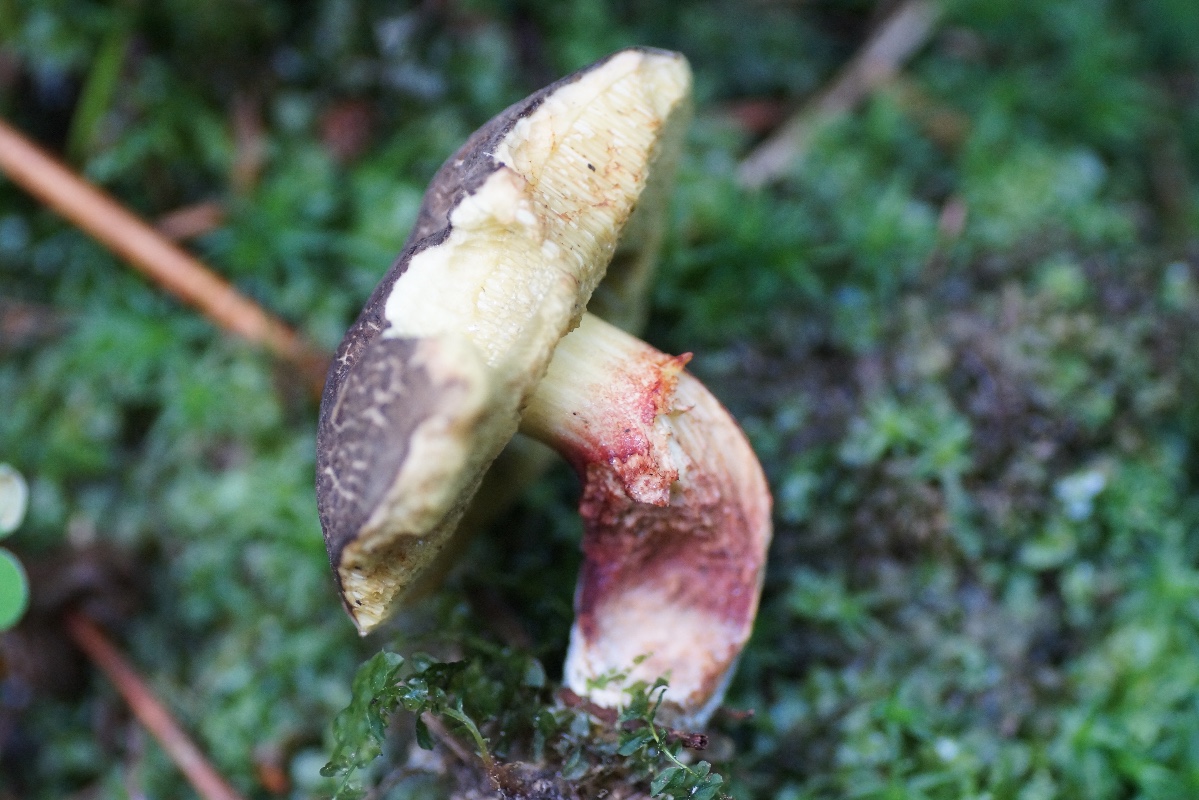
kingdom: Fungi
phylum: Basidiomycota
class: Agaricomycetes
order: Boletales
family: Boletaceae
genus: Xerocomellus
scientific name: Xerocomellus chrysenteron
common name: rødsprukken rørhat
